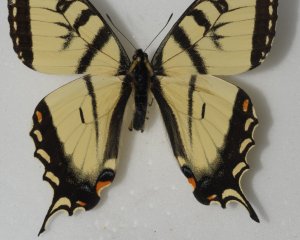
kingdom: Animalia
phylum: Arthropoda
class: Insecta
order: Lepidoptera
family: Papilionidae
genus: Pterourus
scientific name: Pterourus canadensis
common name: Canadian Tiger Swallowtail
